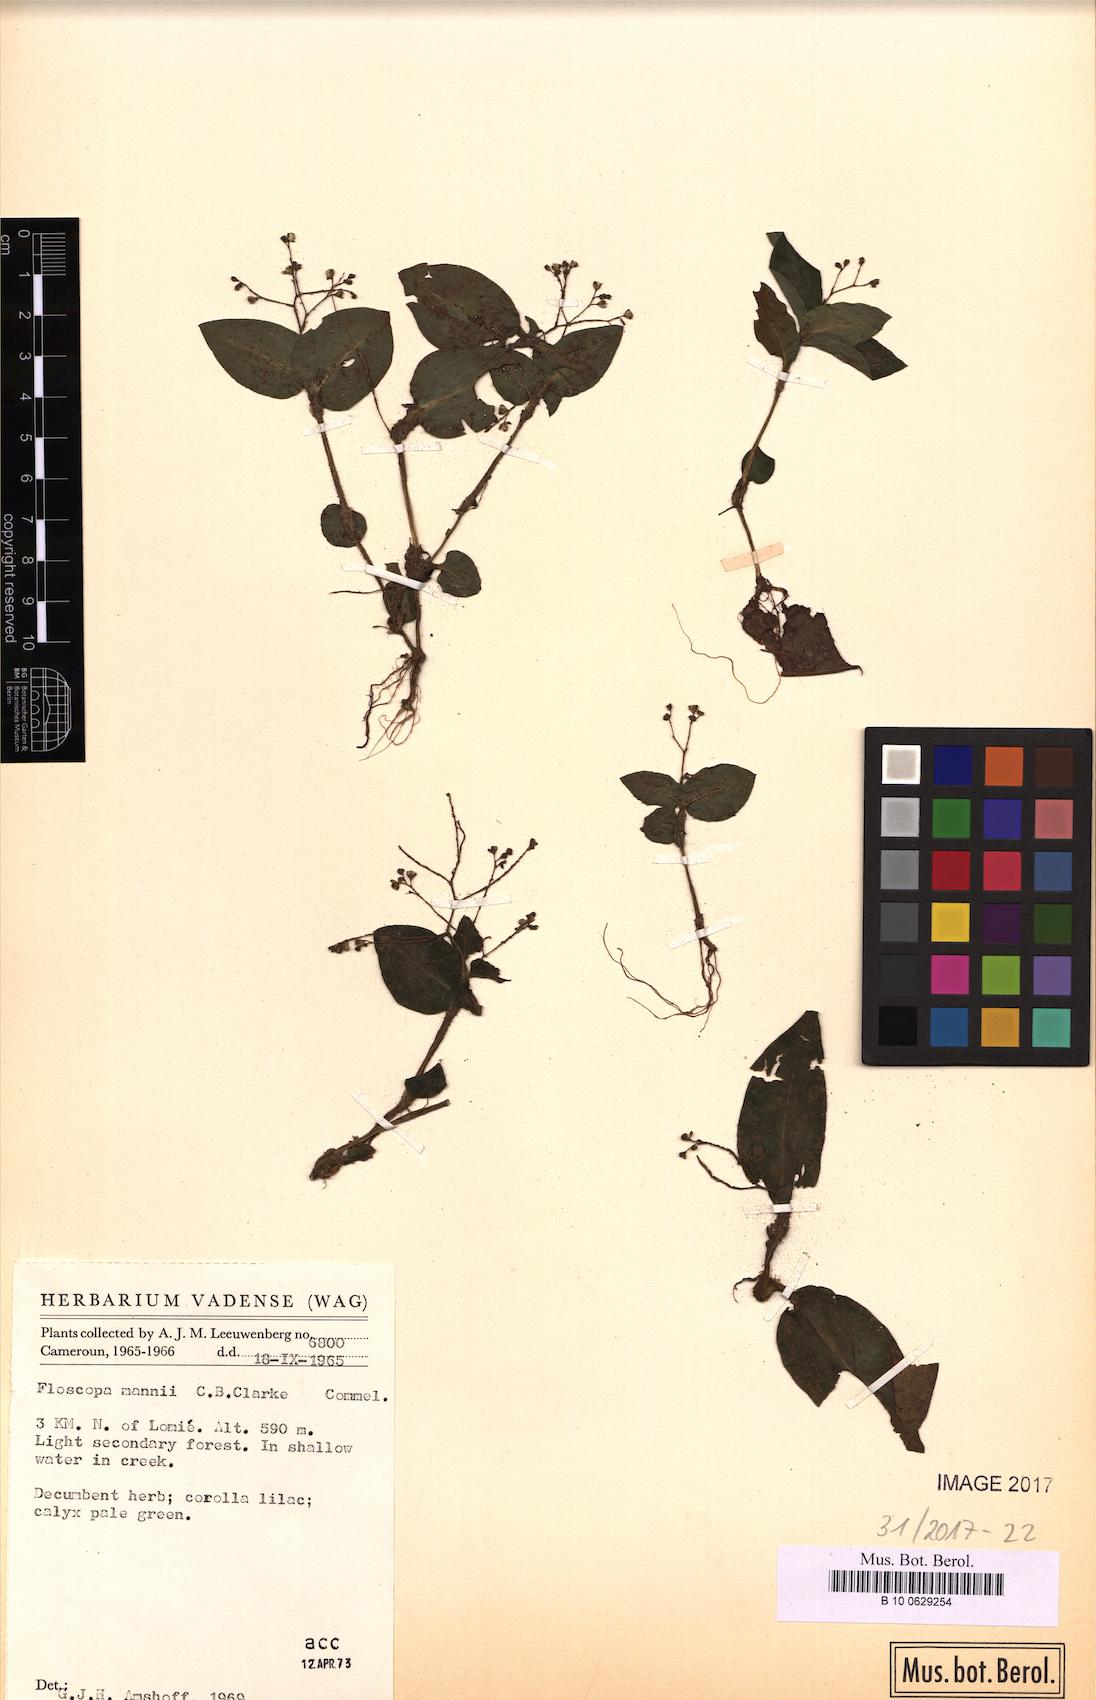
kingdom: Plantae
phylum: Tracheophyta
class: Liliopsida
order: Commelinales
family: Commelinaceae
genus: Floscopa
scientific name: Floscopa mannii
